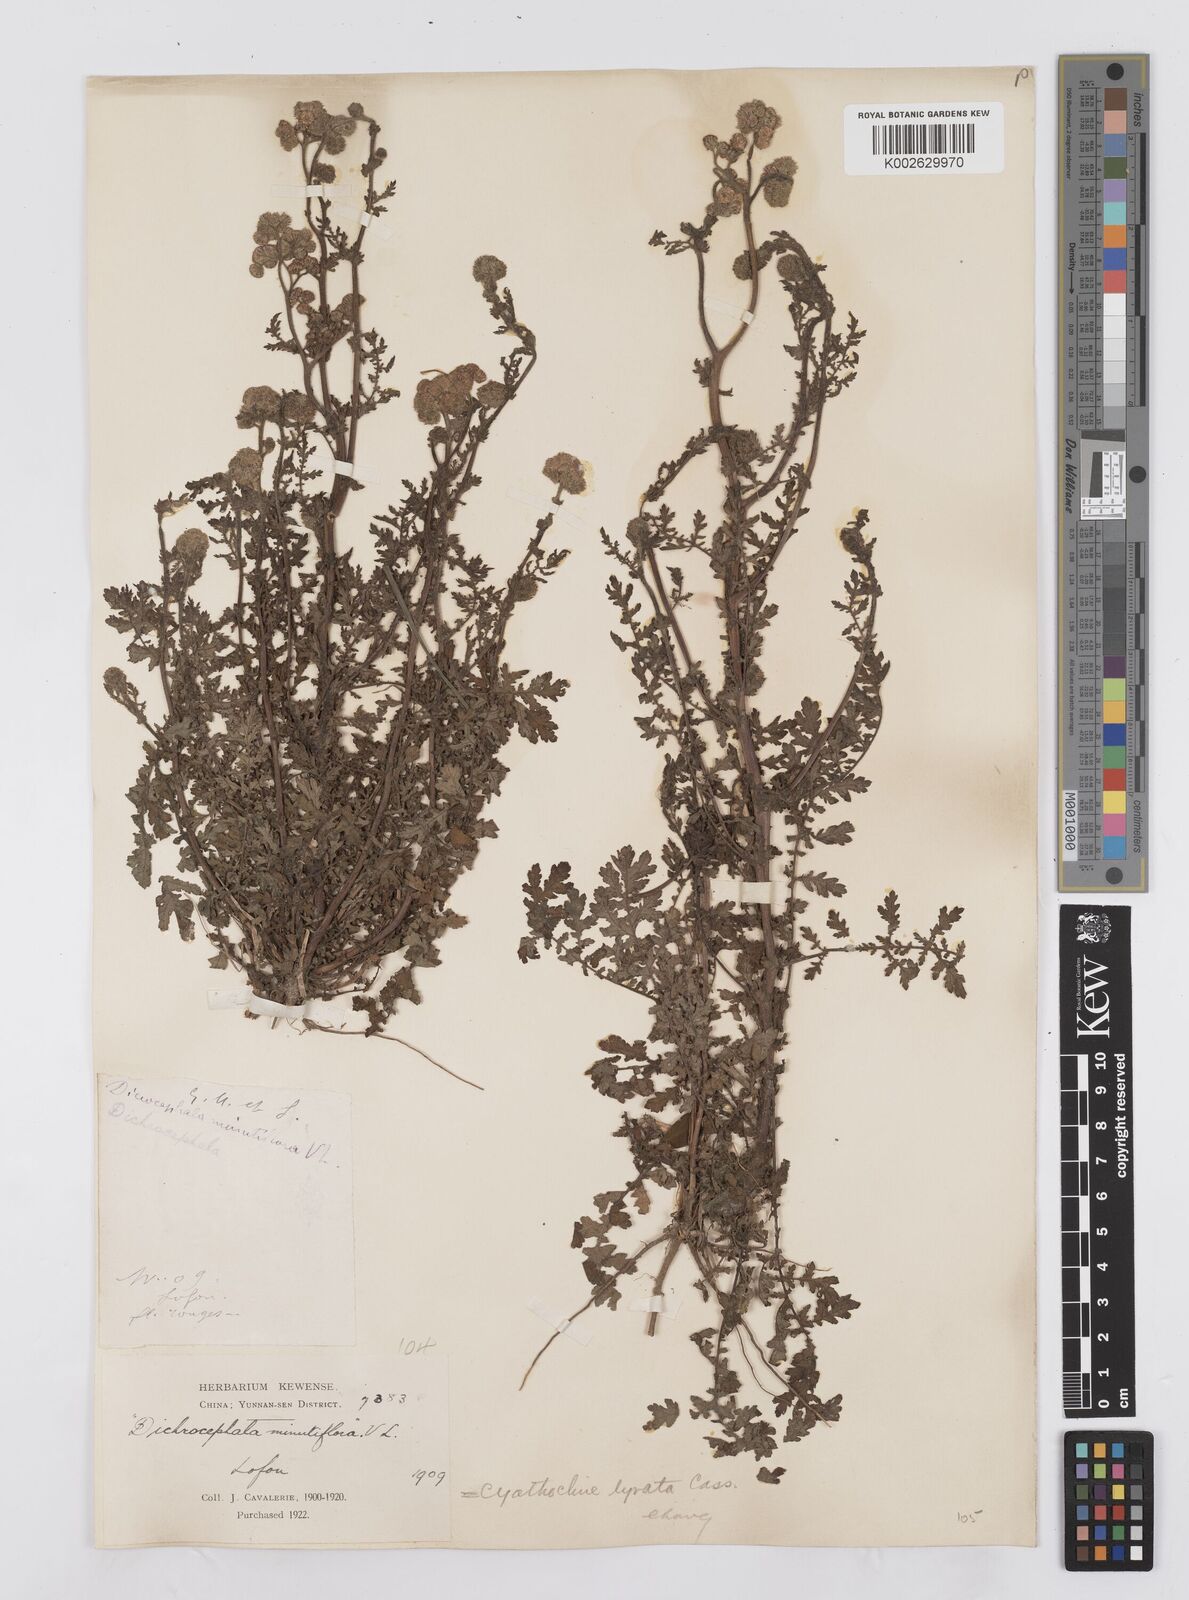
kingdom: Plantae
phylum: Tracheophyta
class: Magnoliopsida
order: Asterales
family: Asteraceae
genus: Cyathocline
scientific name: Cyathocline purpurea
